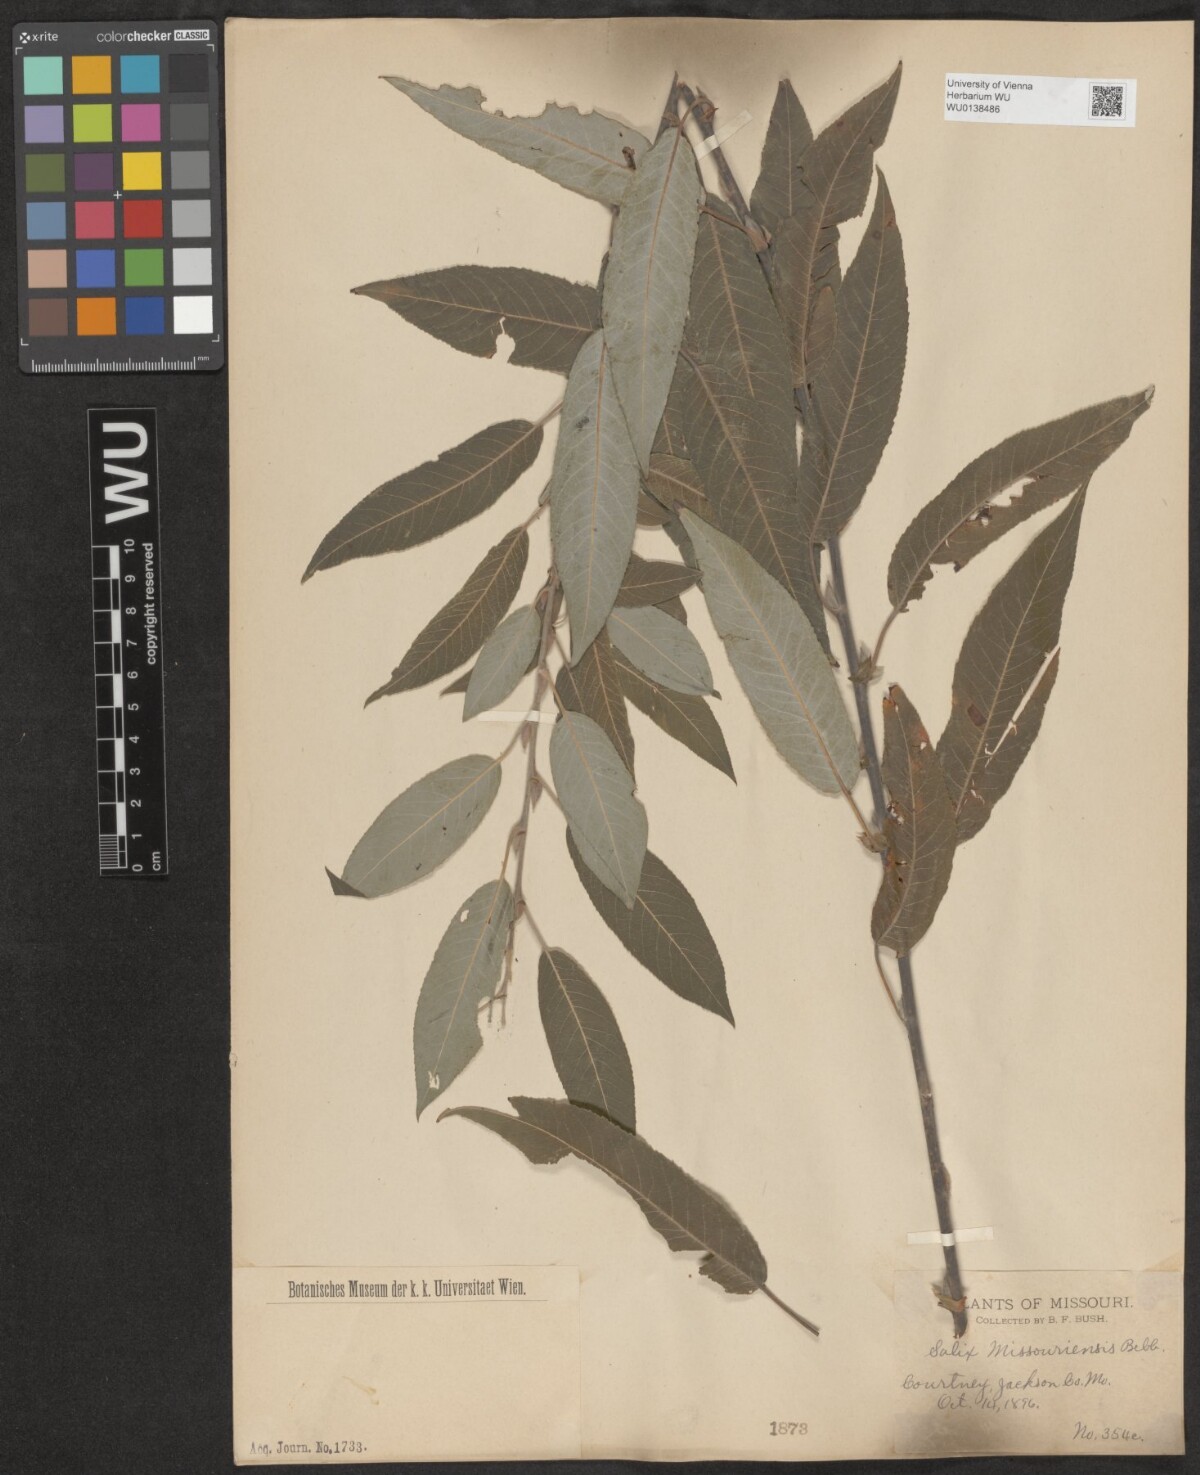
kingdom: Plantae
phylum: Tracheophyta
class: Magnoliopsida
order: Malpighiales
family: Salicaceae
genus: Salix
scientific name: Salix eriocephala
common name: Heart-leaved willow
